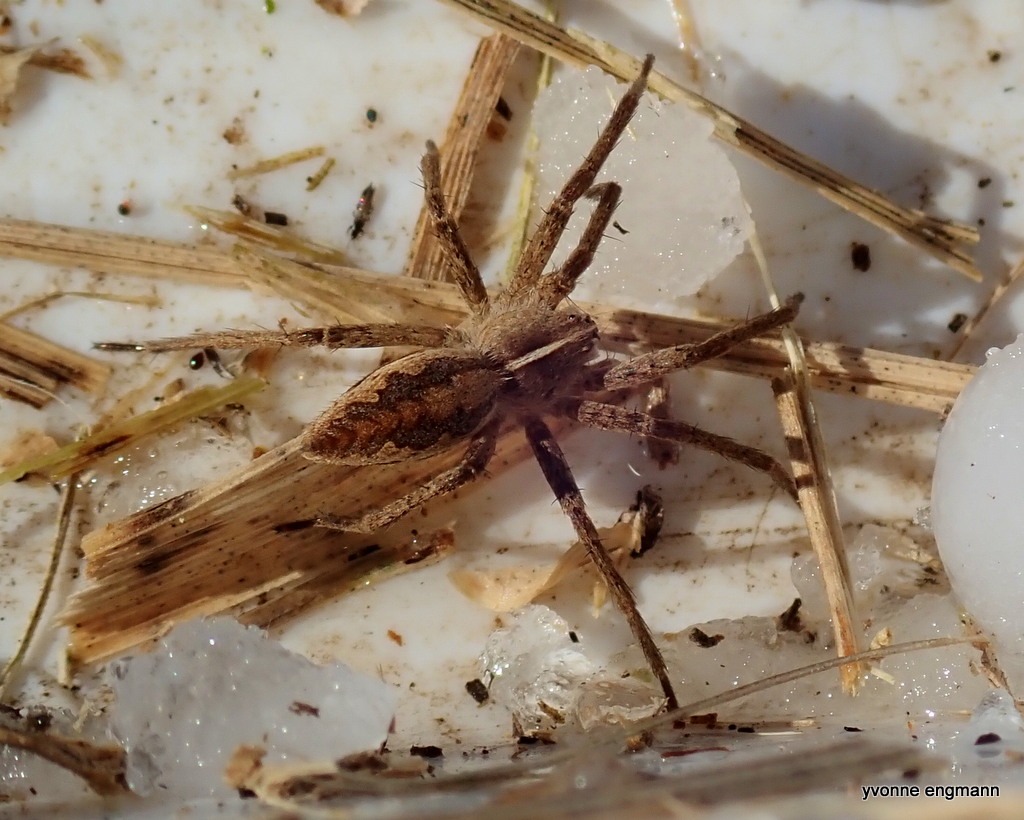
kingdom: Animalia
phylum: Arthropoda
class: Arachnida
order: Araneae
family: Pisauridae
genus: Pisaura
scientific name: Pisaura mirabilis
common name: Almindelig rovedderkop
